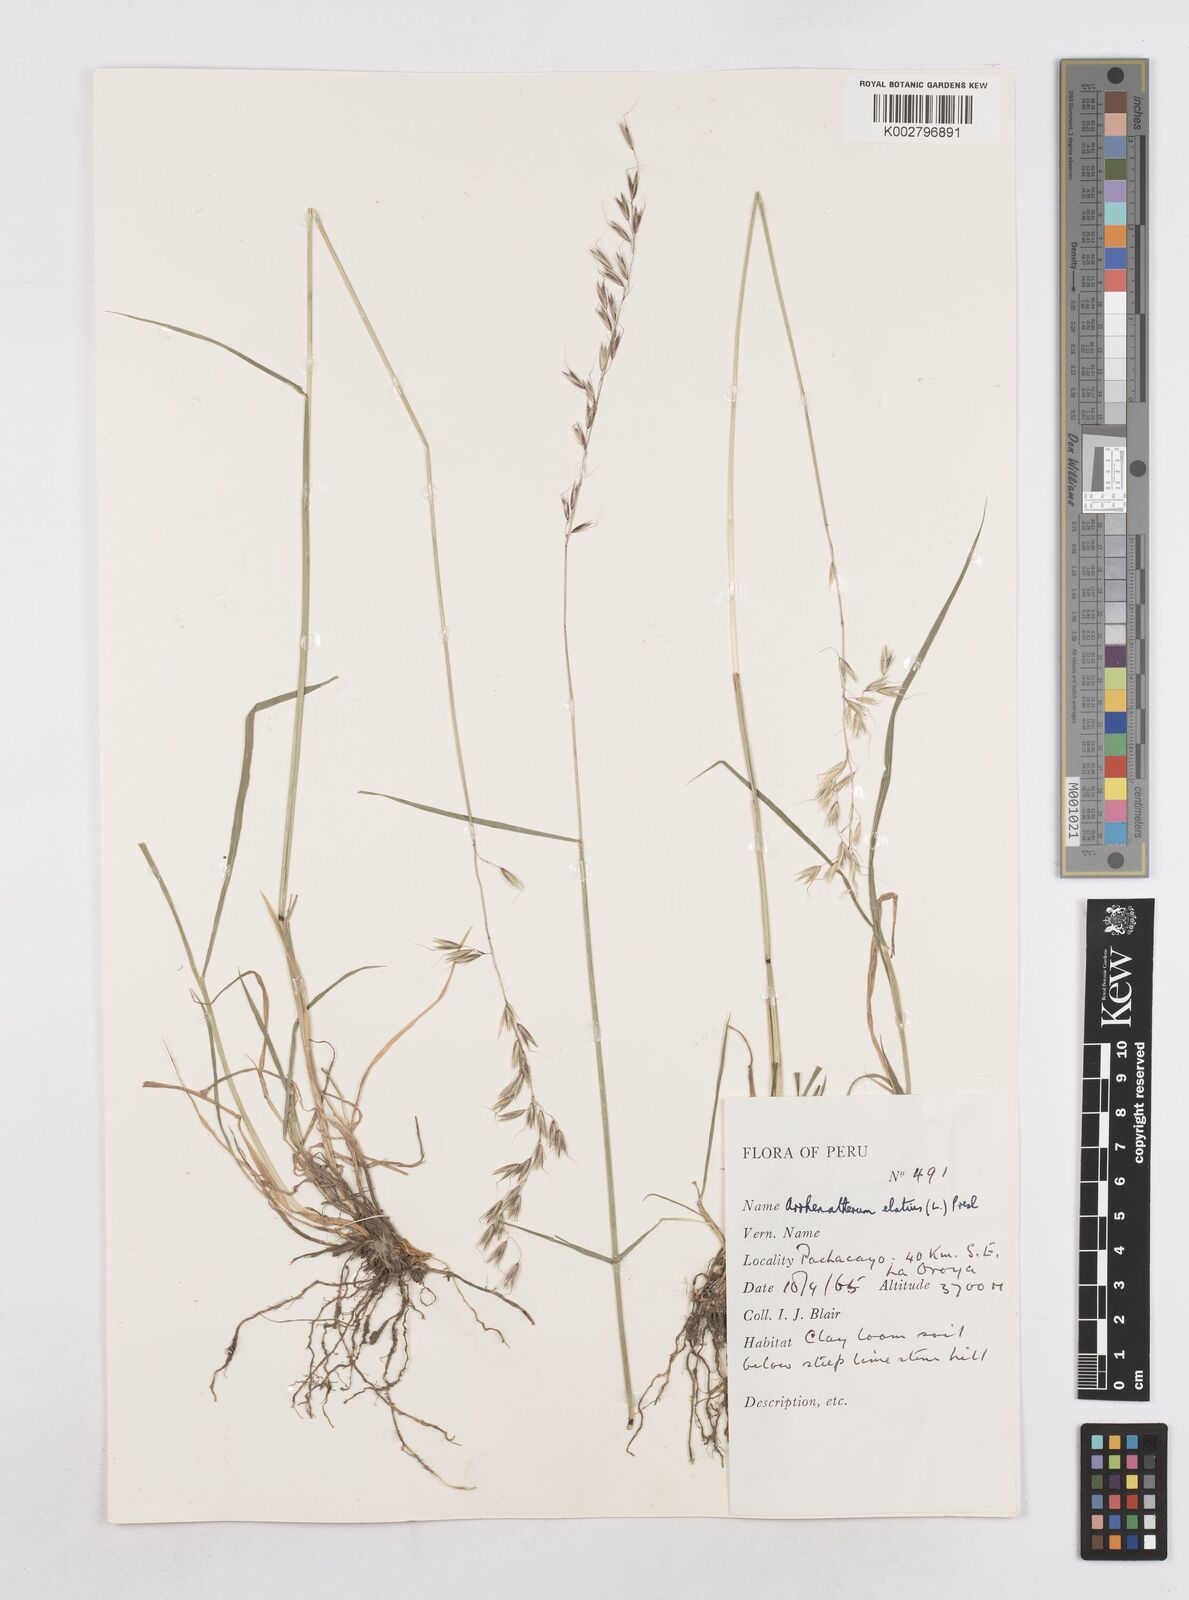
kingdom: Plantae
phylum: Tracheophyta
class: Liliopsida
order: Poales
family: Poaceae
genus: Arrhenatherum
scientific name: Arrhenatherum elatius
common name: Tall oatgrass
